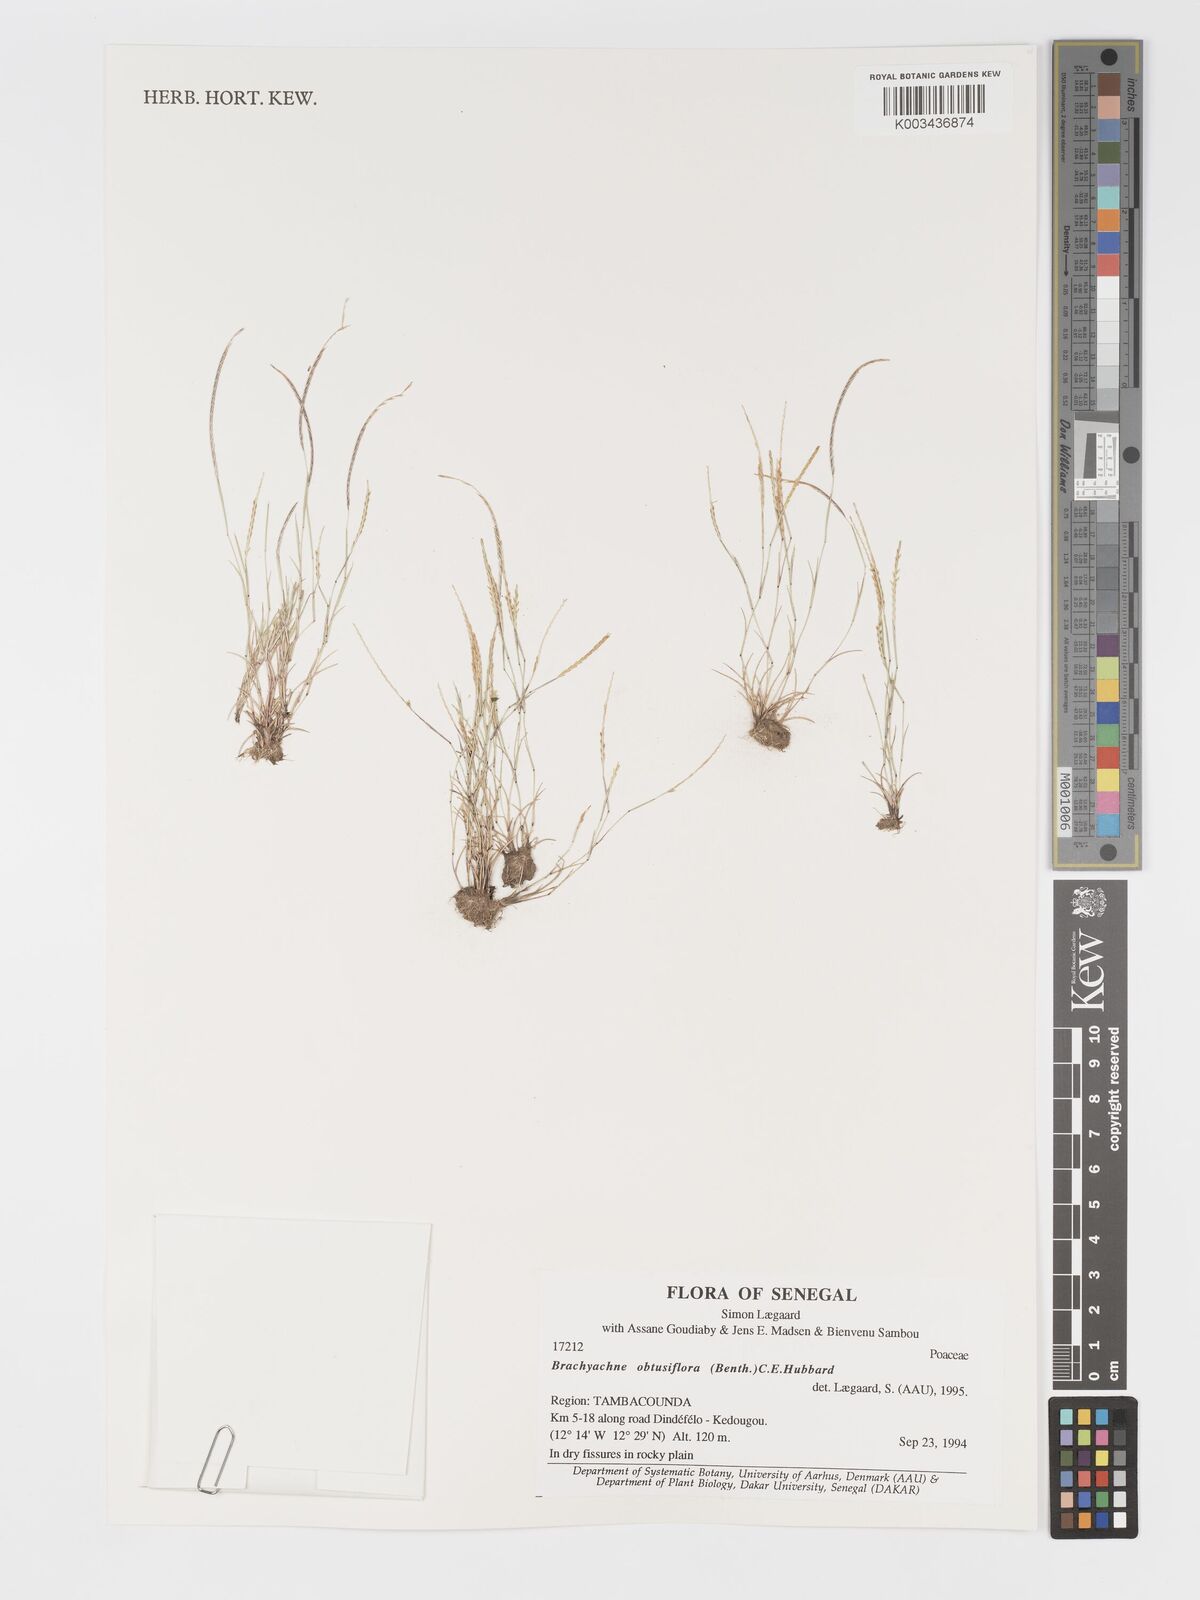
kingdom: Plantae
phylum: Tracheophyta
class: Liliopsida
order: Poales
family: Poaceae
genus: Micrachne
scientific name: Micrachne obtusiflora
